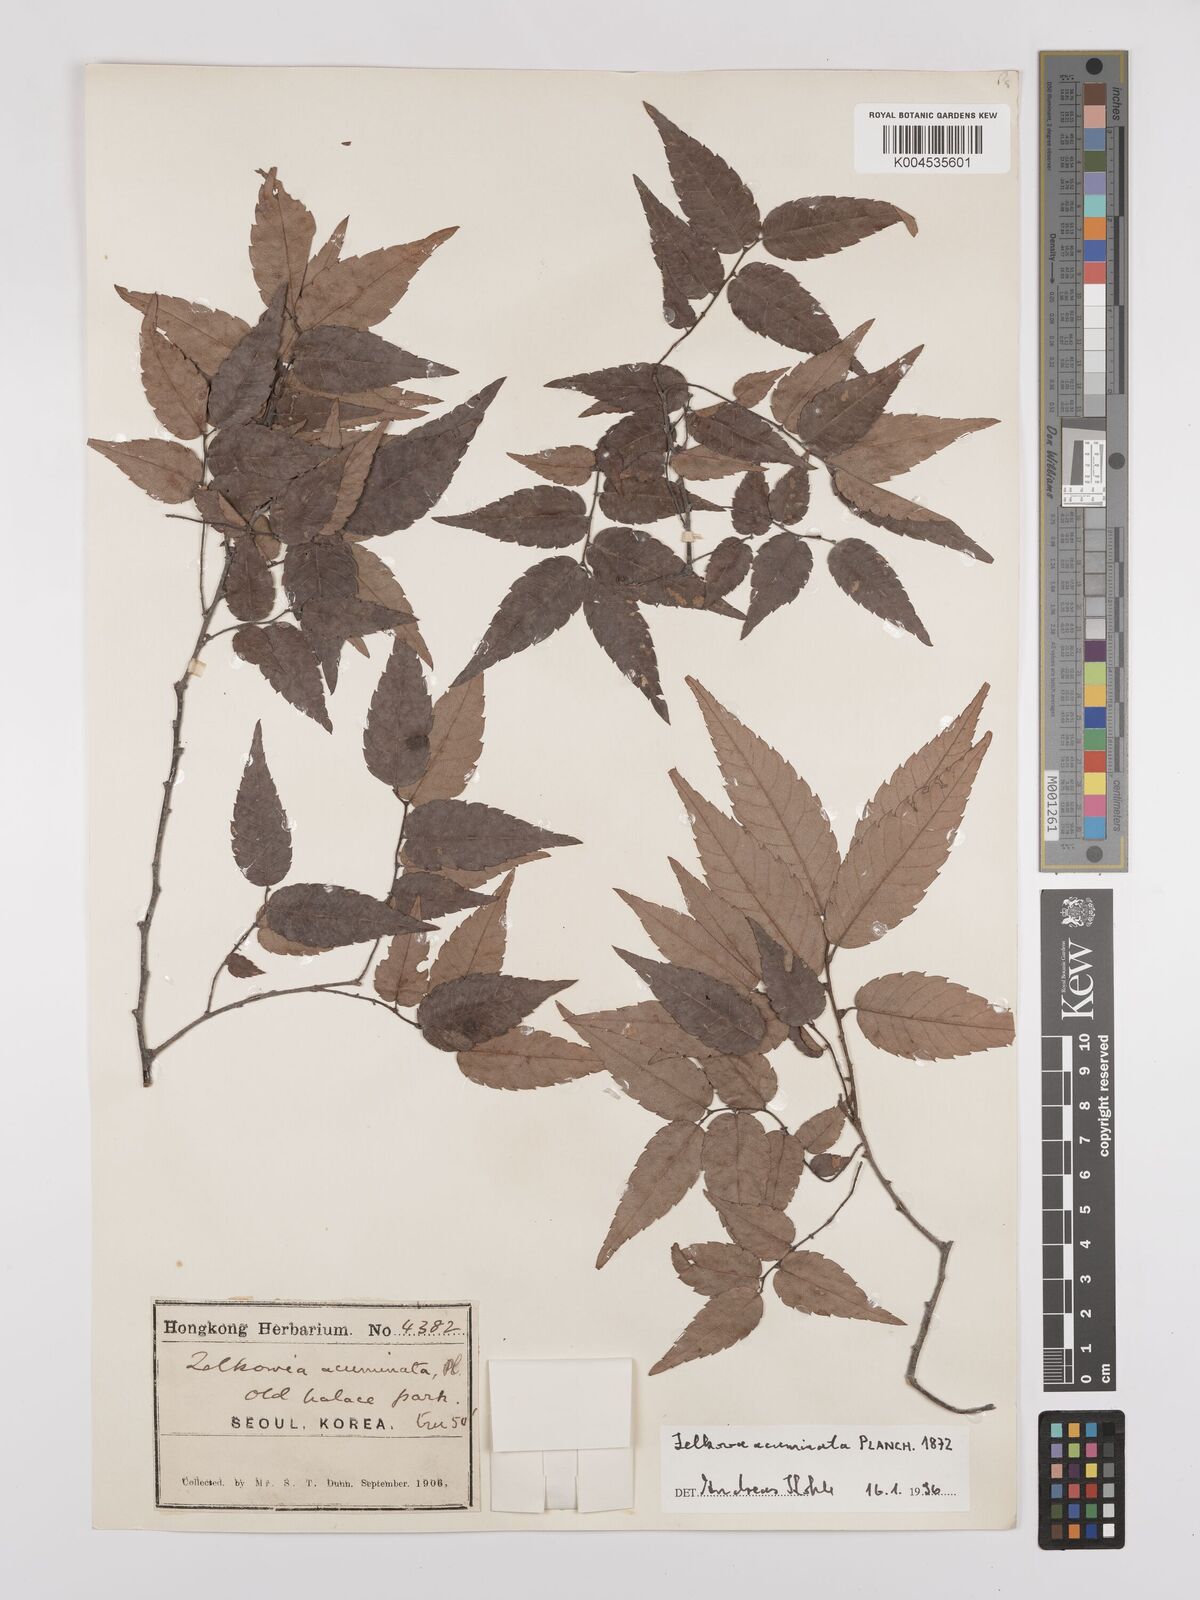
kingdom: Plantae
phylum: Tracheophyta
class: Magnoliopsida
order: Rosales
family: Ulmaceae
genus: Zelkova
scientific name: Zelkova serrata
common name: Japanese zelkova
